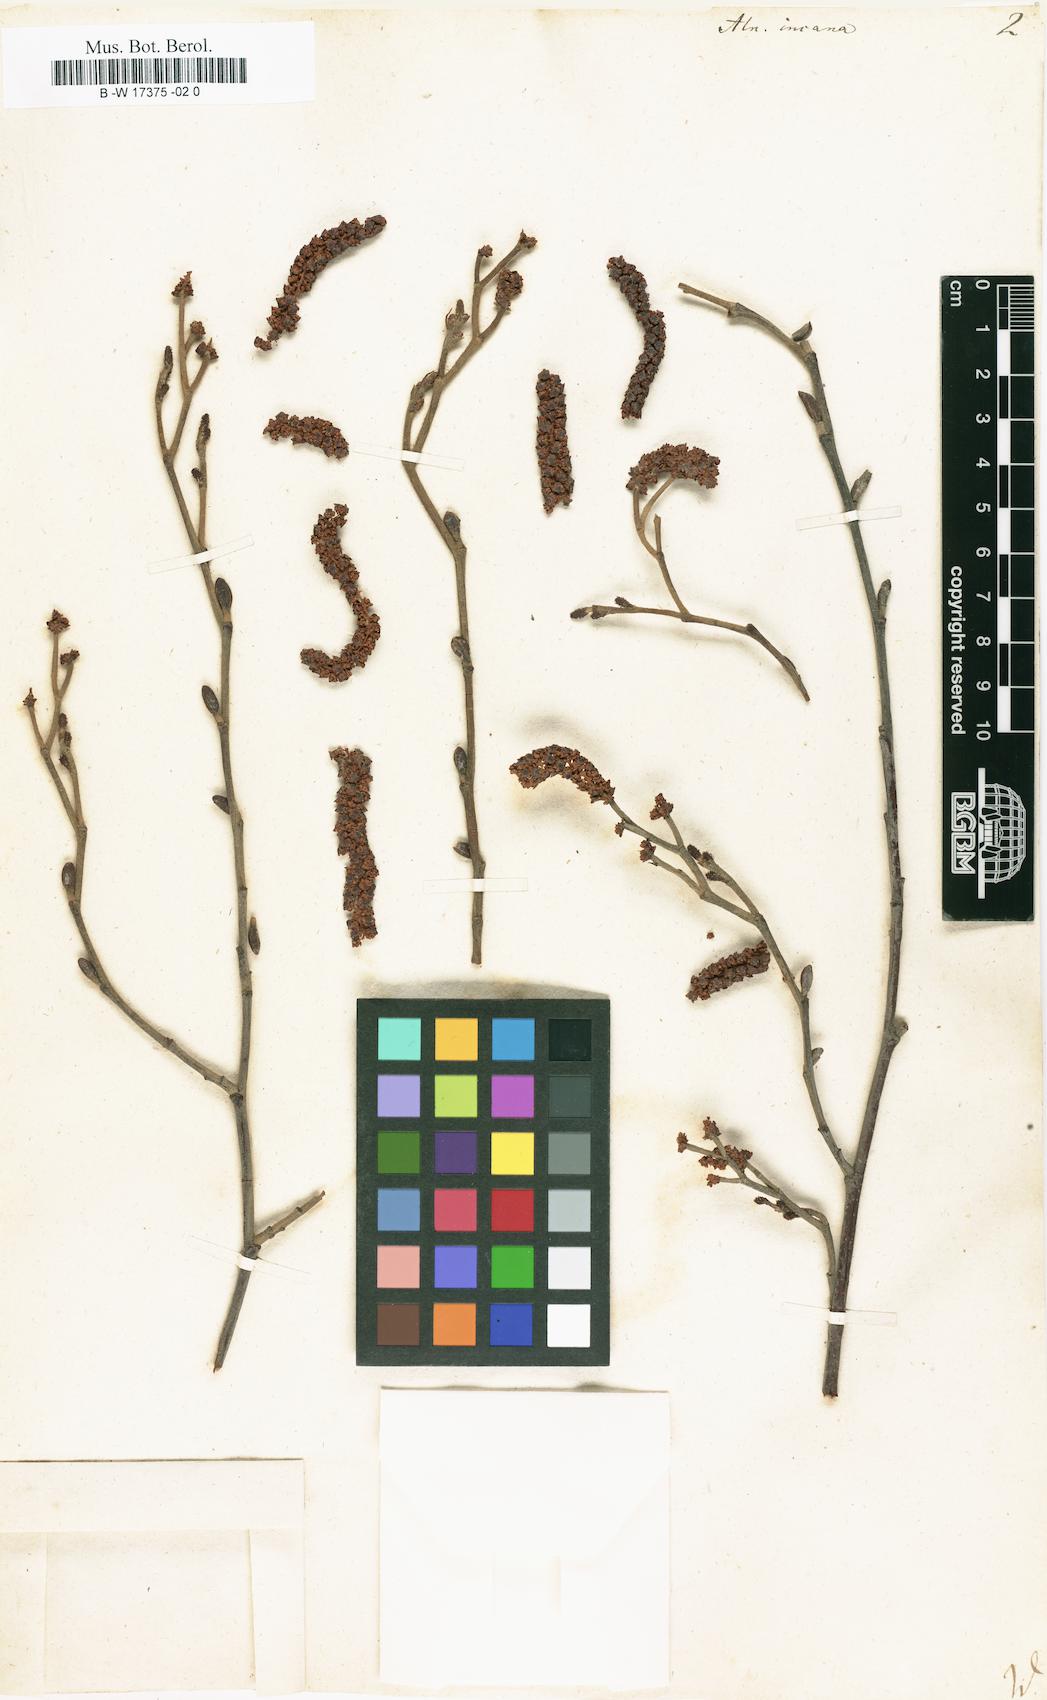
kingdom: Plantae
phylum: Tracheophyta
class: Magnoliopsida
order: Fagales
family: Betulaceae
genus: Alnus
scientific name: Alnus incana
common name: Grey alder
